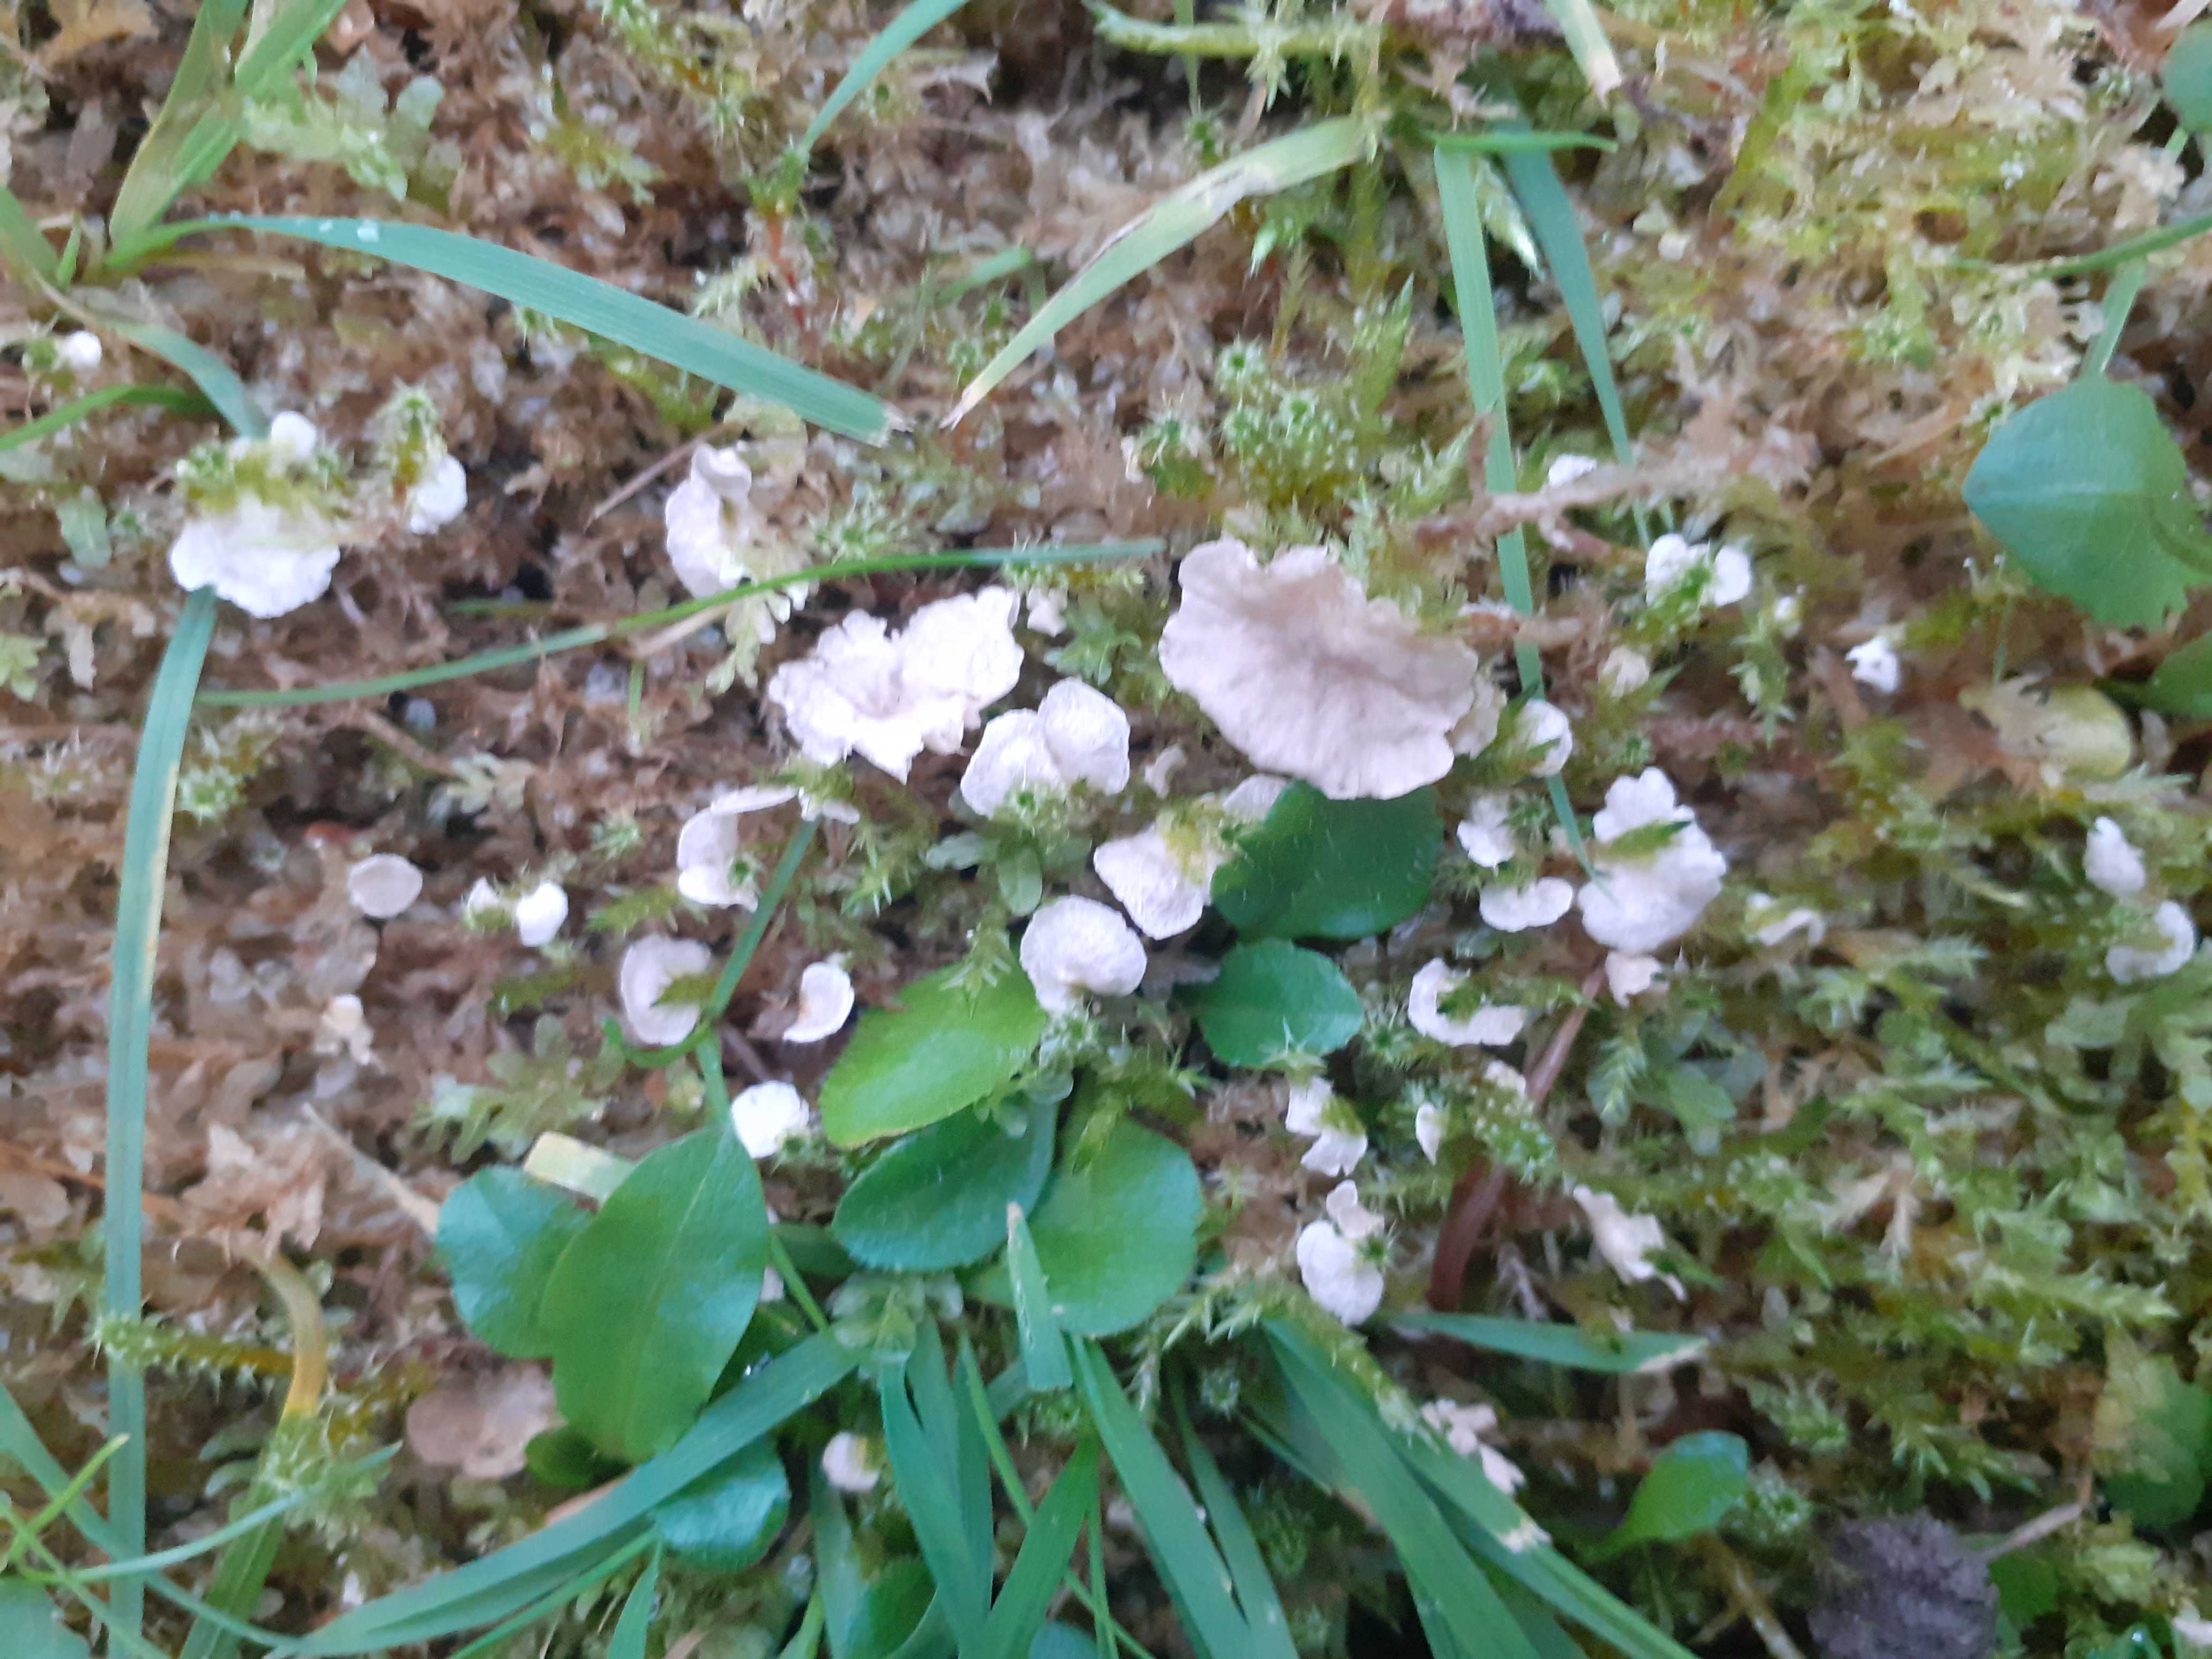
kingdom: Fungi
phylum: Basidiomycota
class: Agaricomycetes
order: Agaricales
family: Hygrophoraceae
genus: Arrhenia
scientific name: Arrhenia retiruga
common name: lille fontænehat
